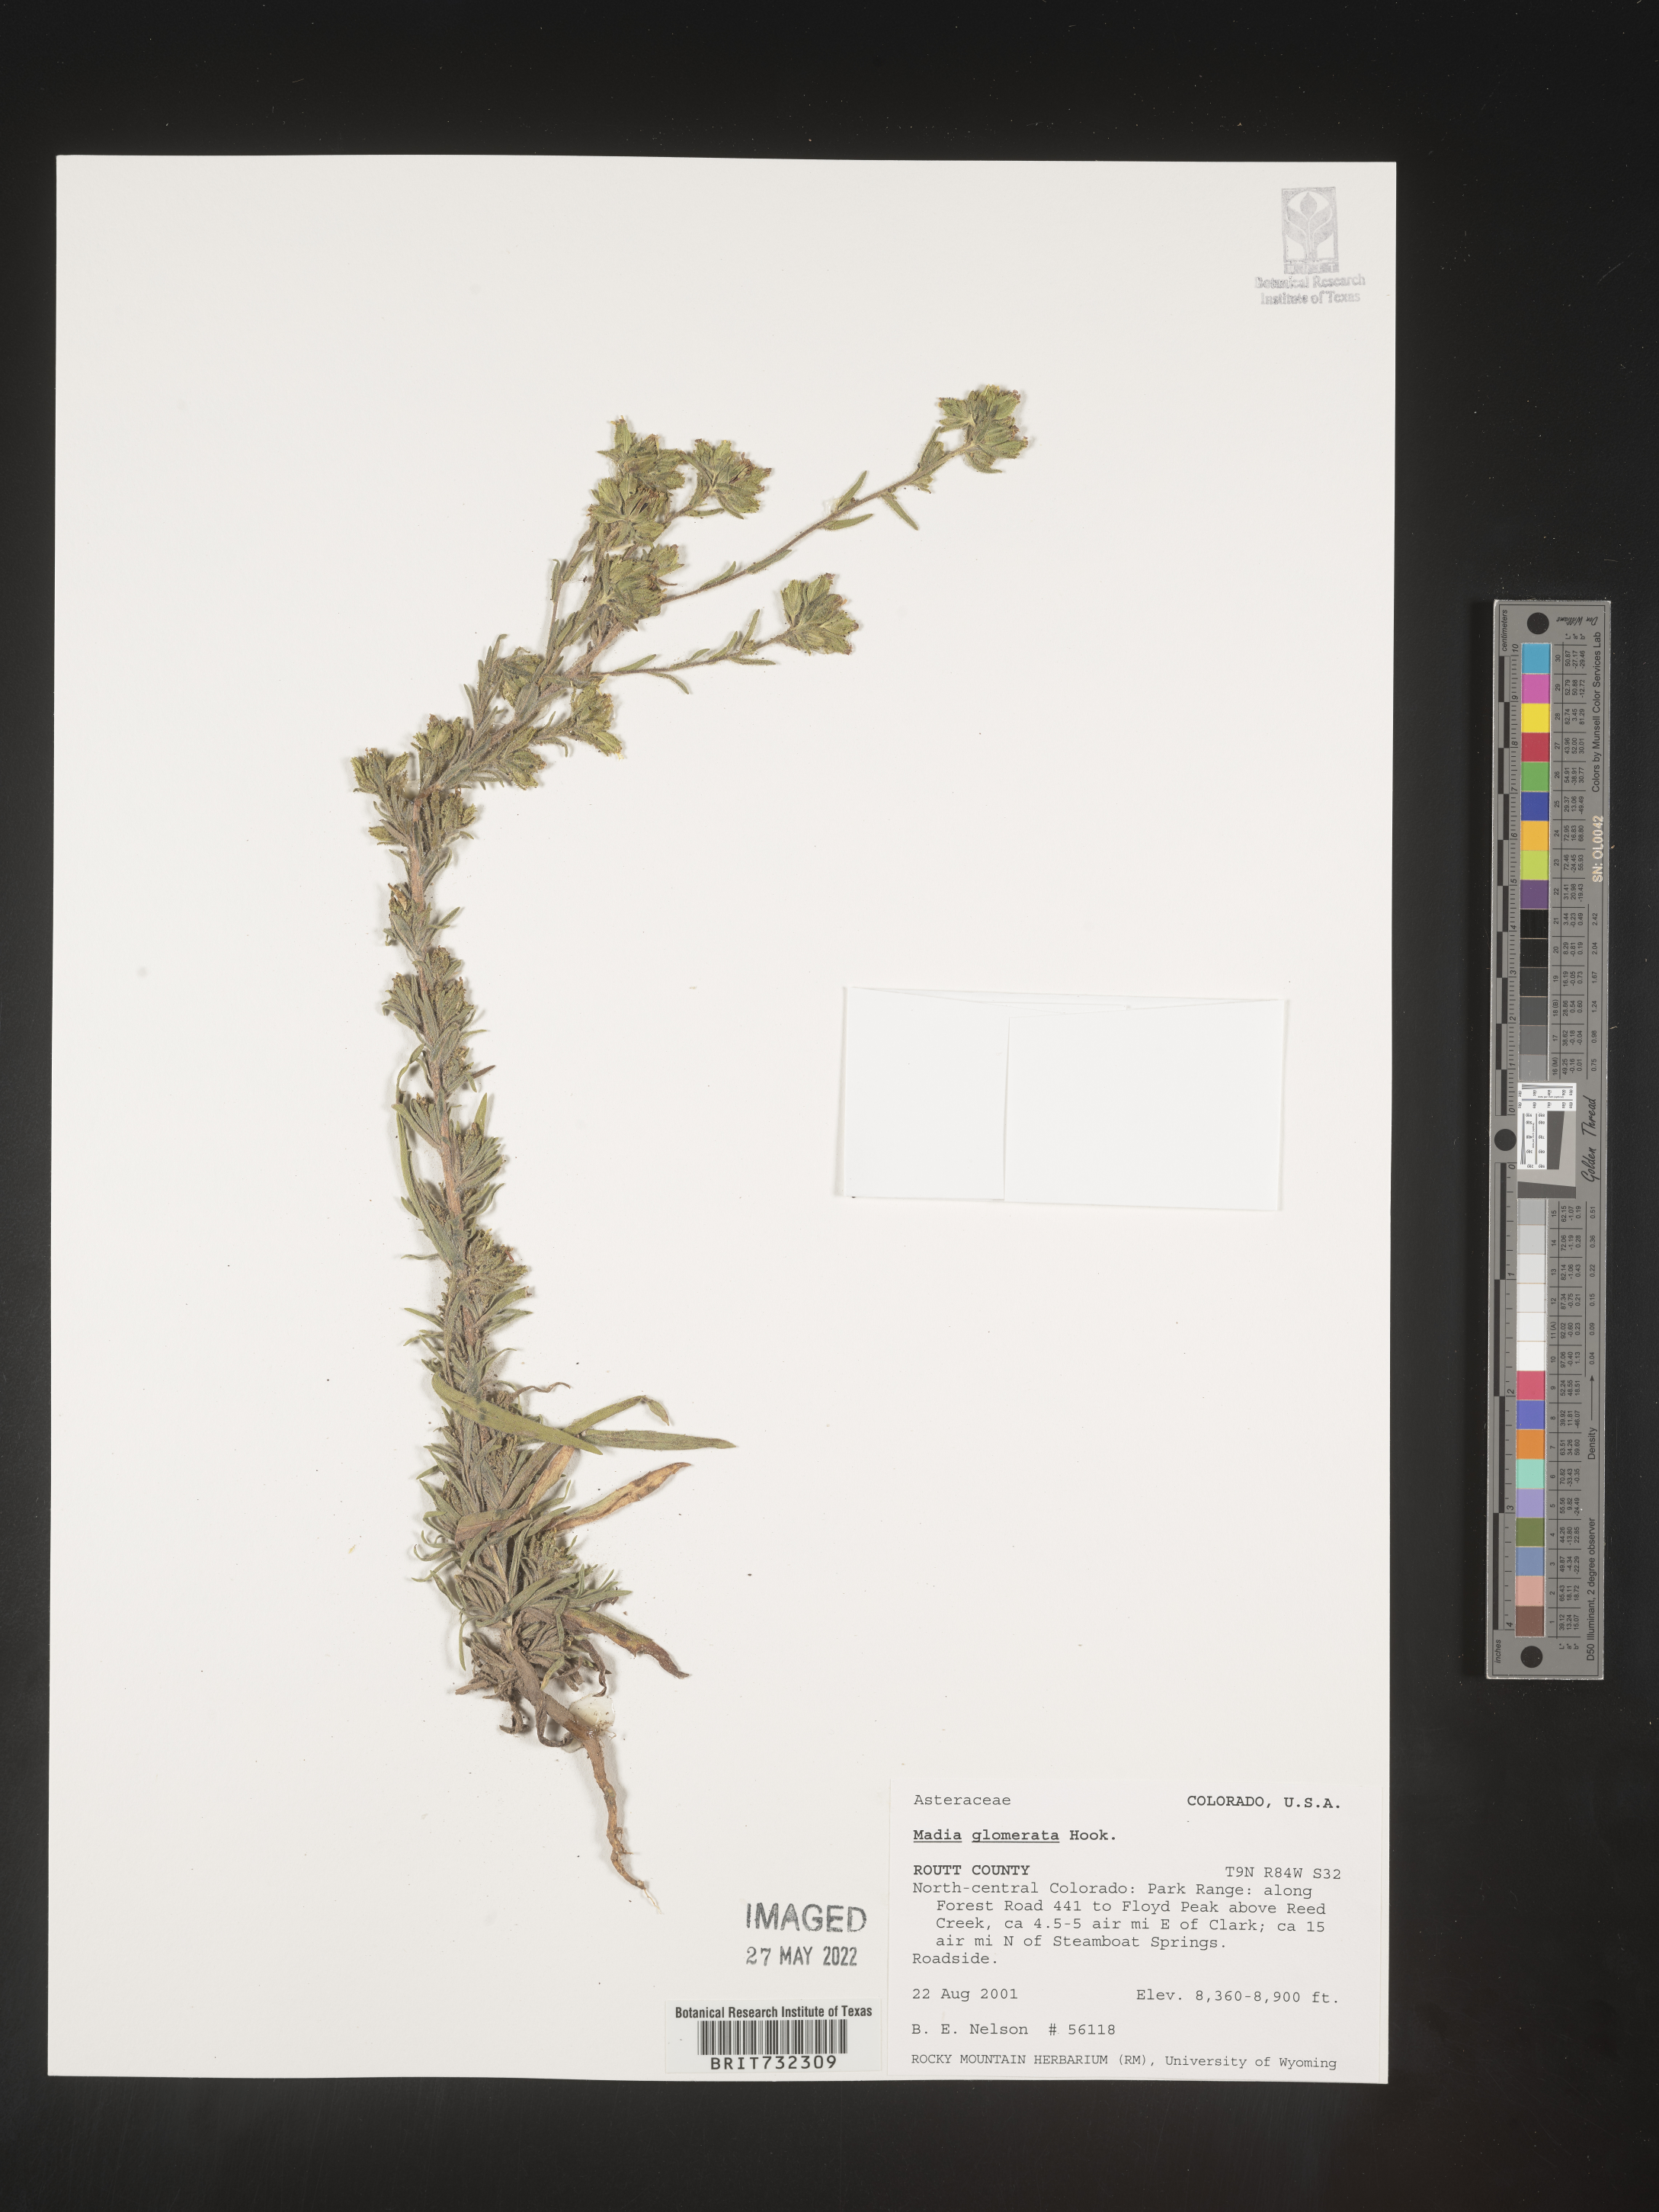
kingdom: Plantae
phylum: Tracheophyta
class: Magnoliopsida
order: Asterales
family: Asteraceae
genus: Madia
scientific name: Madia glomerata
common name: Mountain tarweed
